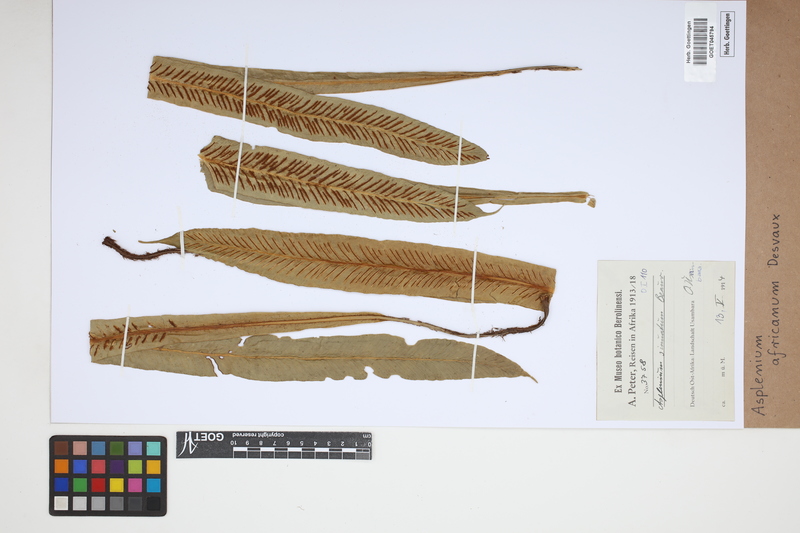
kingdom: Plantae
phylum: Tracheophyta
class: Polypodiopsida
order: Polypodiales
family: Aspleniaceae
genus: Asplenium
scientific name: Asplenium africanum
